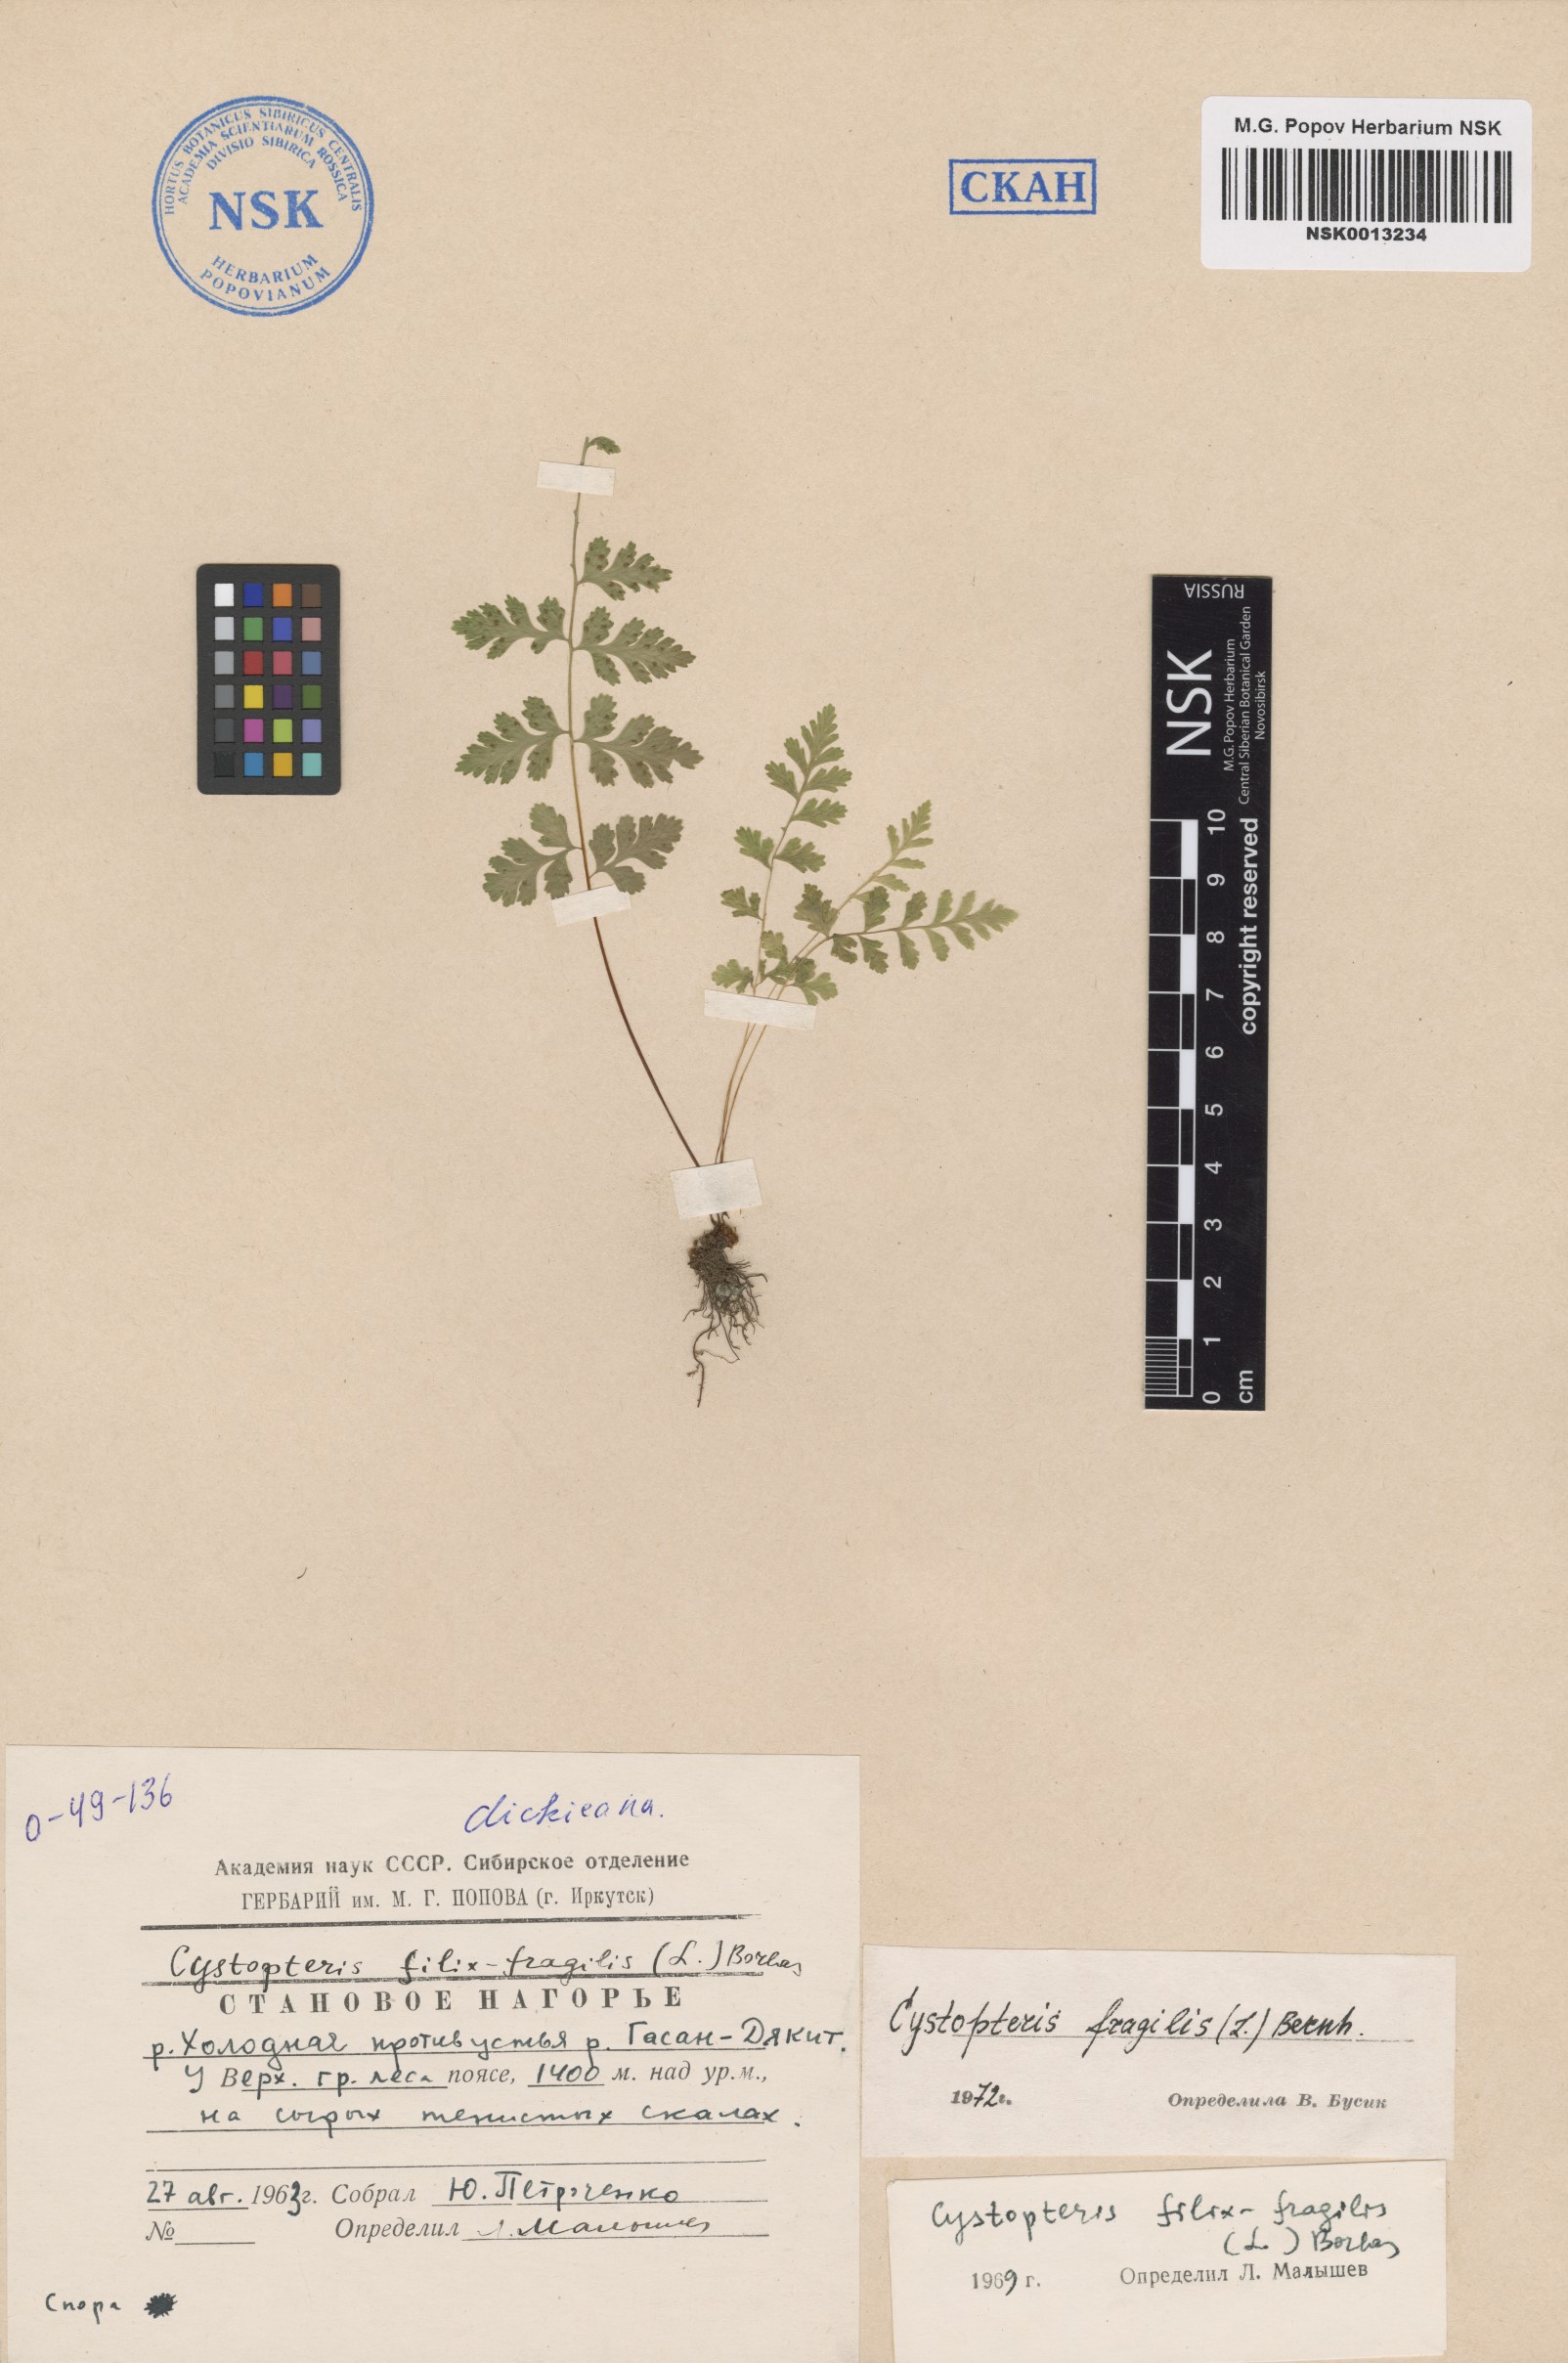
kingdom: Plantae
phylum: Tracheophyta
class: Polypodiopsida
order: Polypodiales
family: Cystopteridaceae
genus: Cystopteris
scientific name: Cystopteris fragilis
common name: Brittle bladder fern
